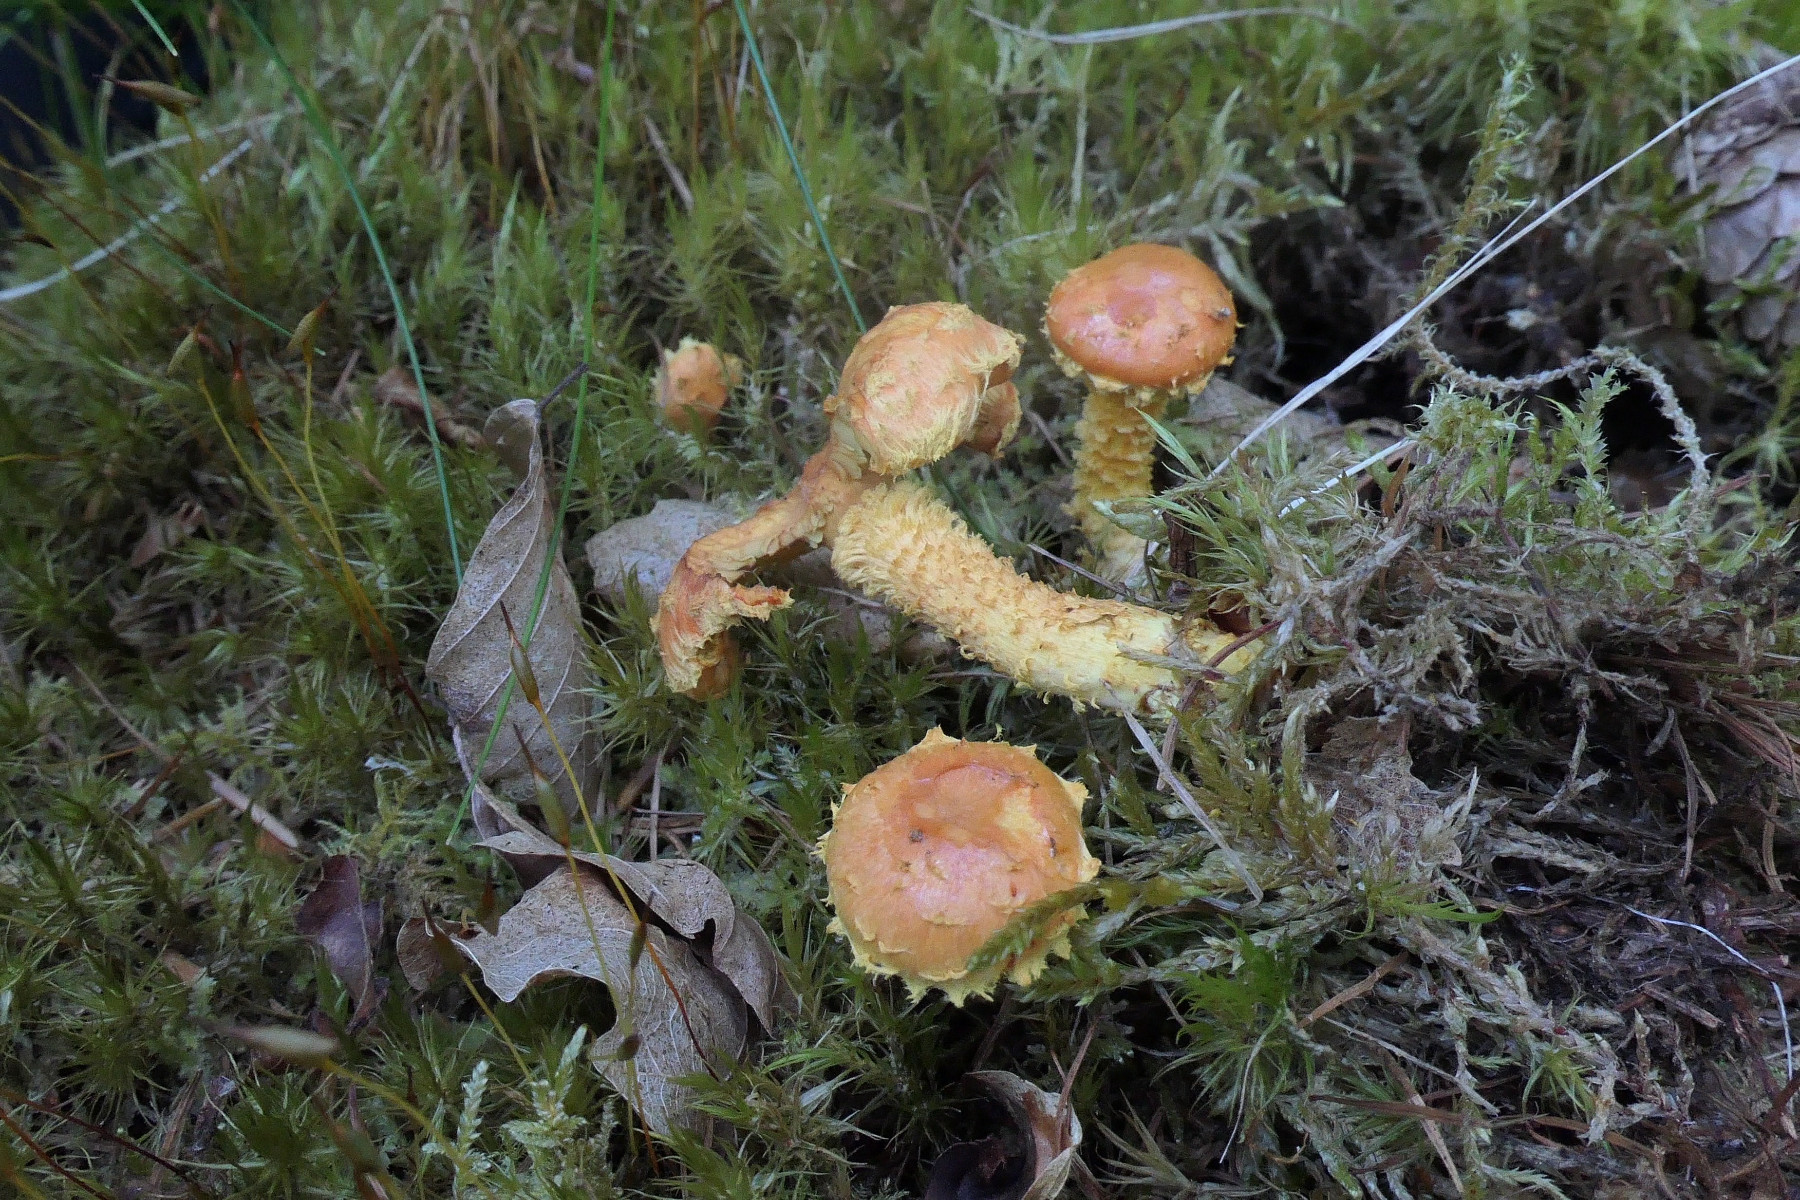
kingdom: Fungi
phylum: Basidiomycota
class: Agaricomycetes
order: Agaricales
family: Strophariaceae
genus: Pholiota
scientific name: Pholiota flammans
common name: flamme-skælhat
